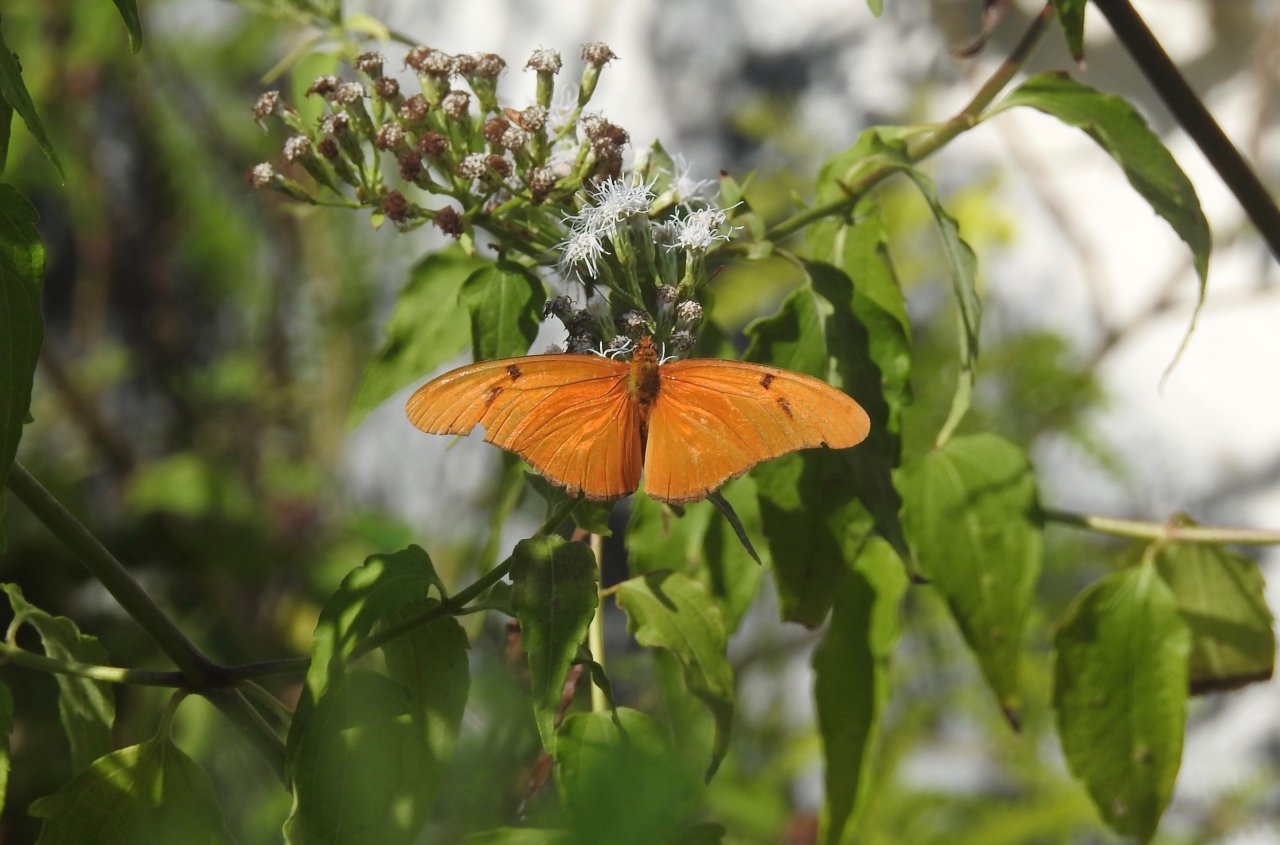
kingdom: Animalia
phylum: Arthropoda
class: Insecta
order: Lepidoptera
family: Nymphalidae
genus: Dryas
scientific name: Dryas iulia
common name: Julia
